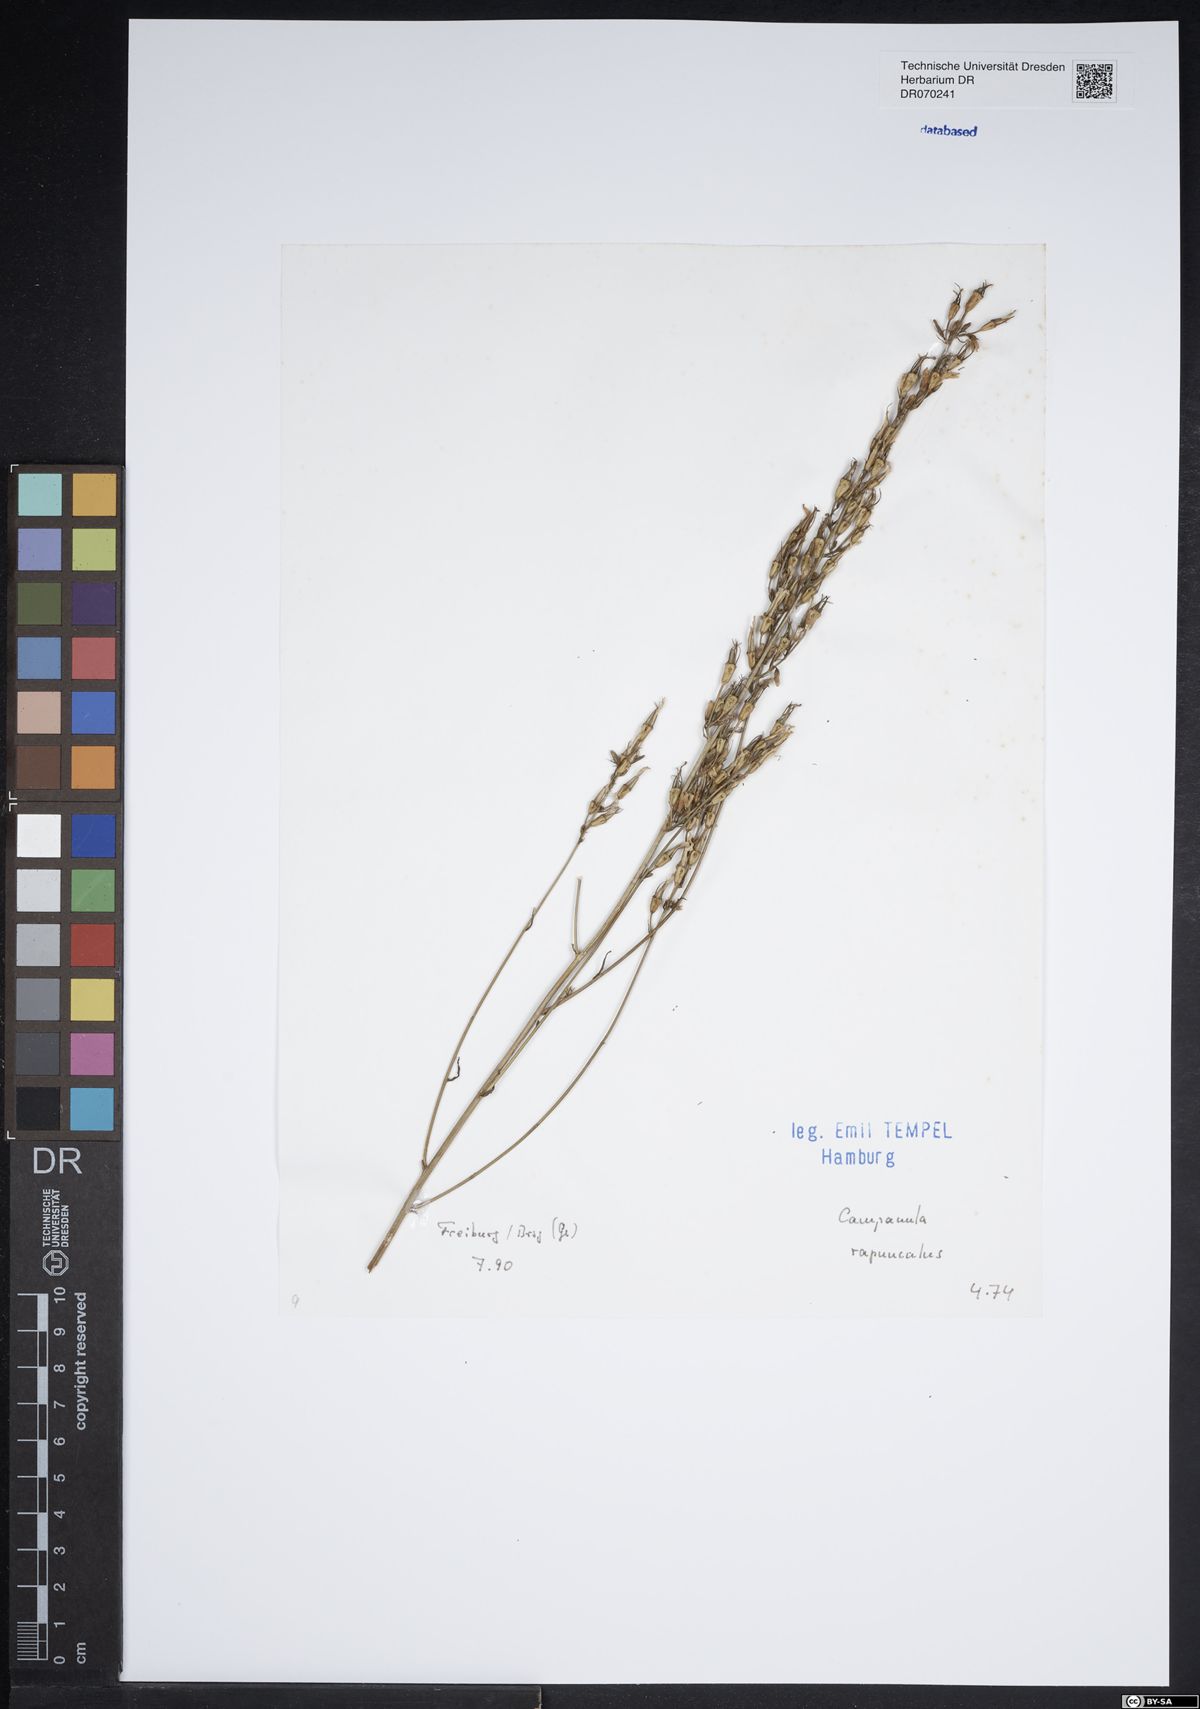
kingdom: Plantae
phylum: Tracheophyta
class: Magnoliopsida
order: Asterales
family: Campanulaceae
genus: Campanula
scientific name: Campanula rapunculus
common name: Rampion bellflower
